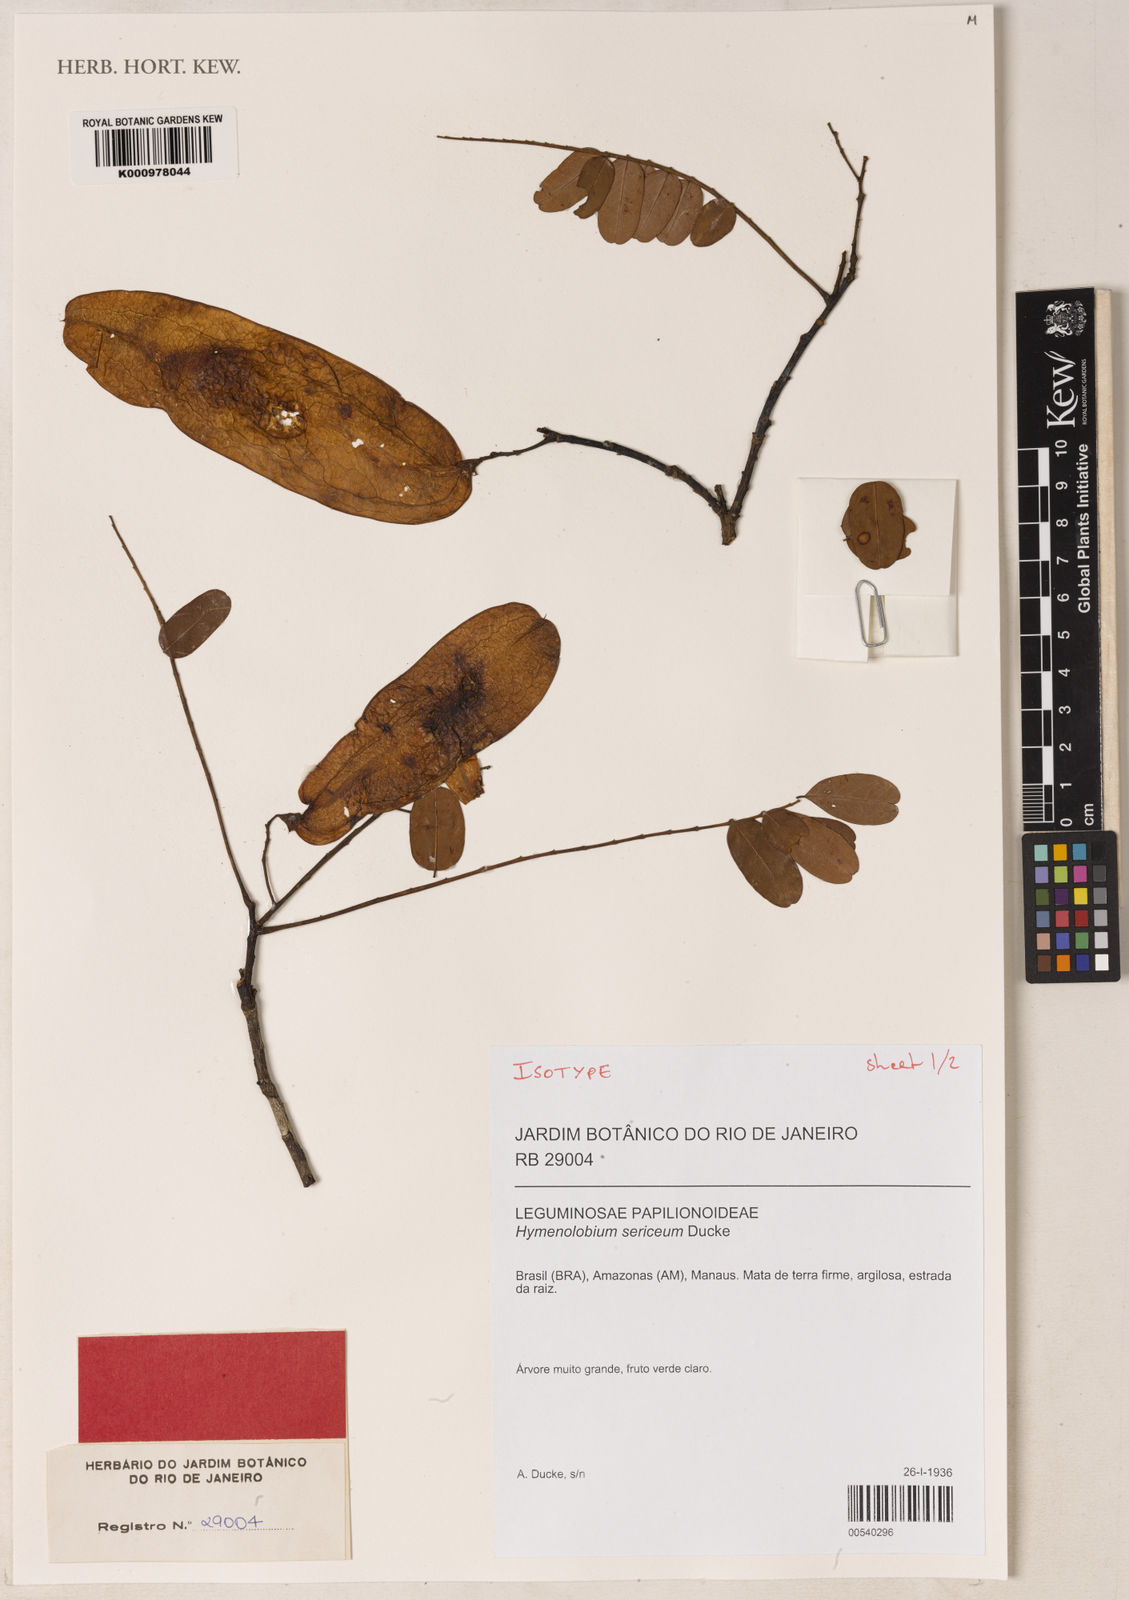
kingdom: Plantae
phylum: Tracheophyta
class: Magnoliopsida
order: Fabales
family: Fabaceae
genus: Hymenolobium
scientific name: Hymenolobium sericeum
